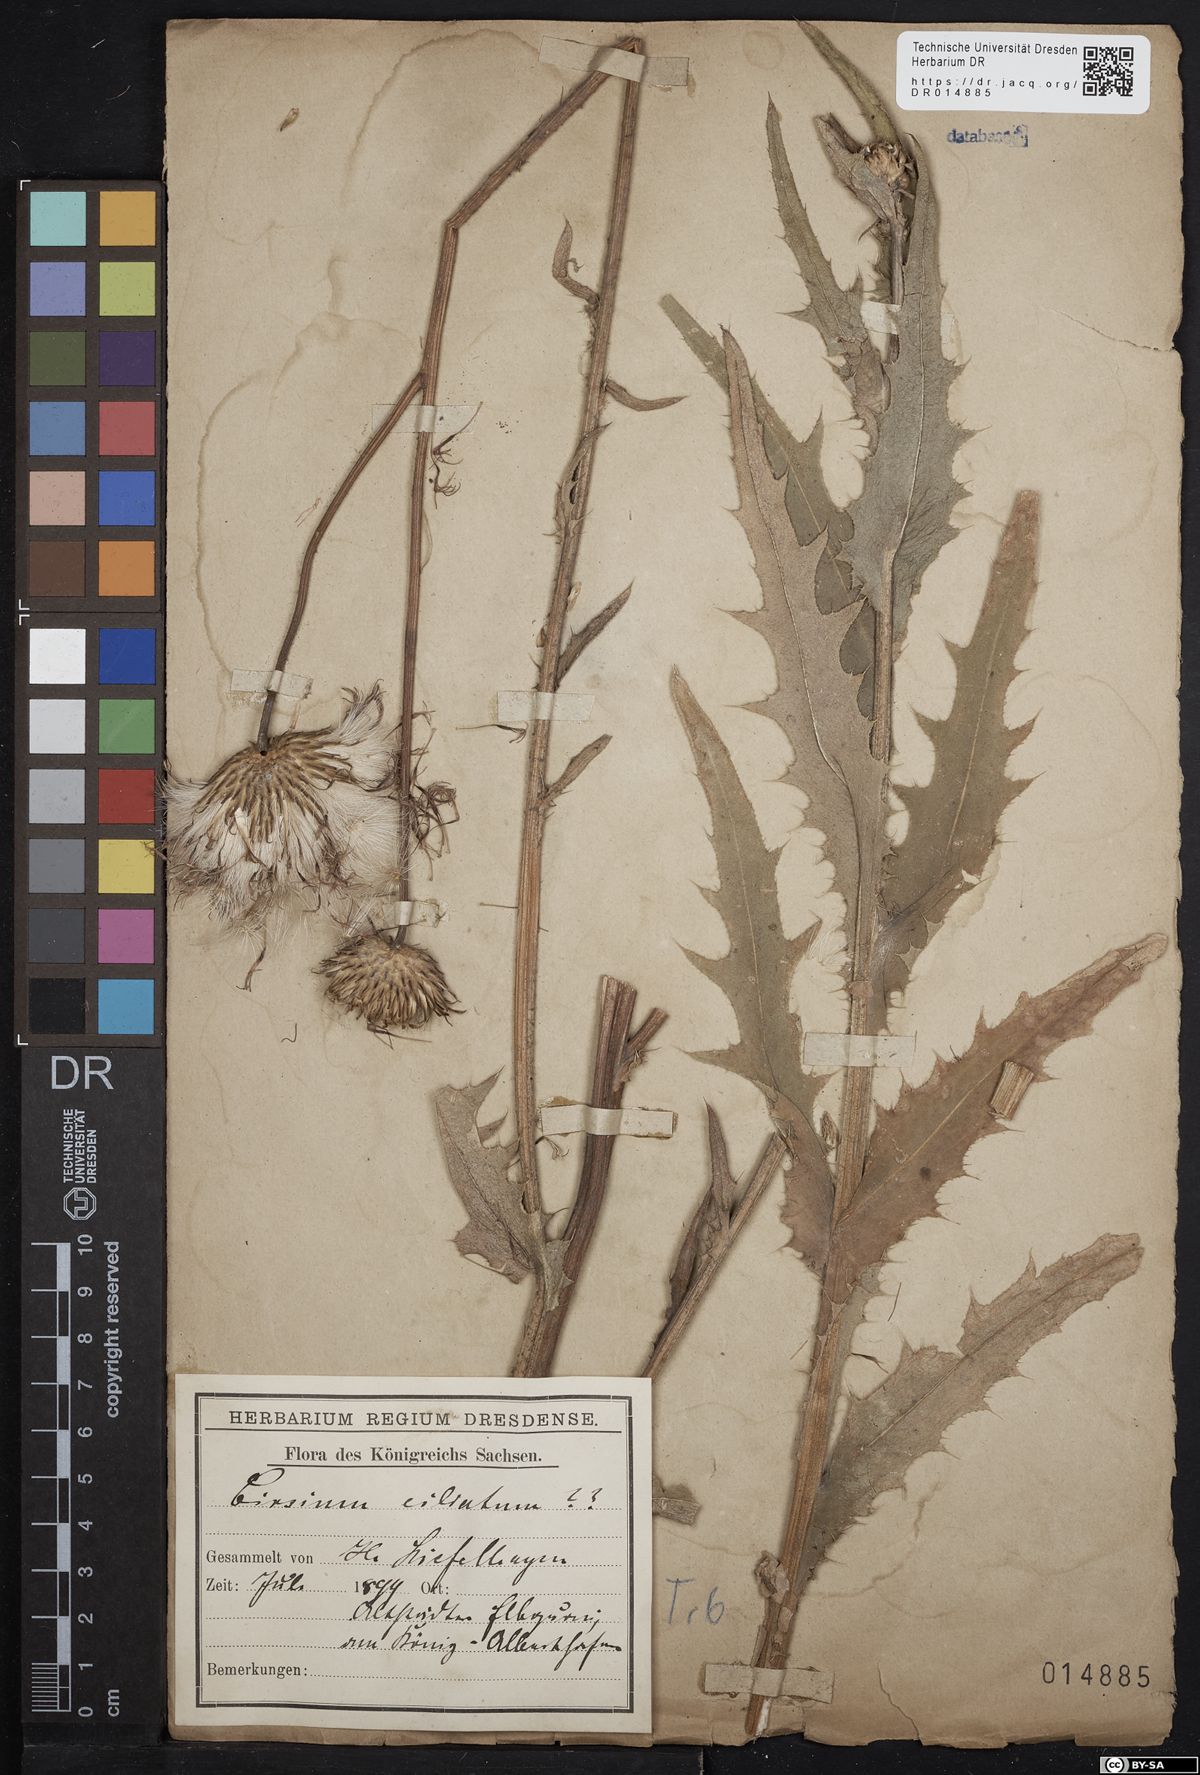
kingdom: Plantae
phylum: Tracheophyta
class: Magnoliopsida
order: Asterales
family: Asteraceae
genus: Cirsium
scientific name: Cirsium canum
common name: Queen anne's thistle
